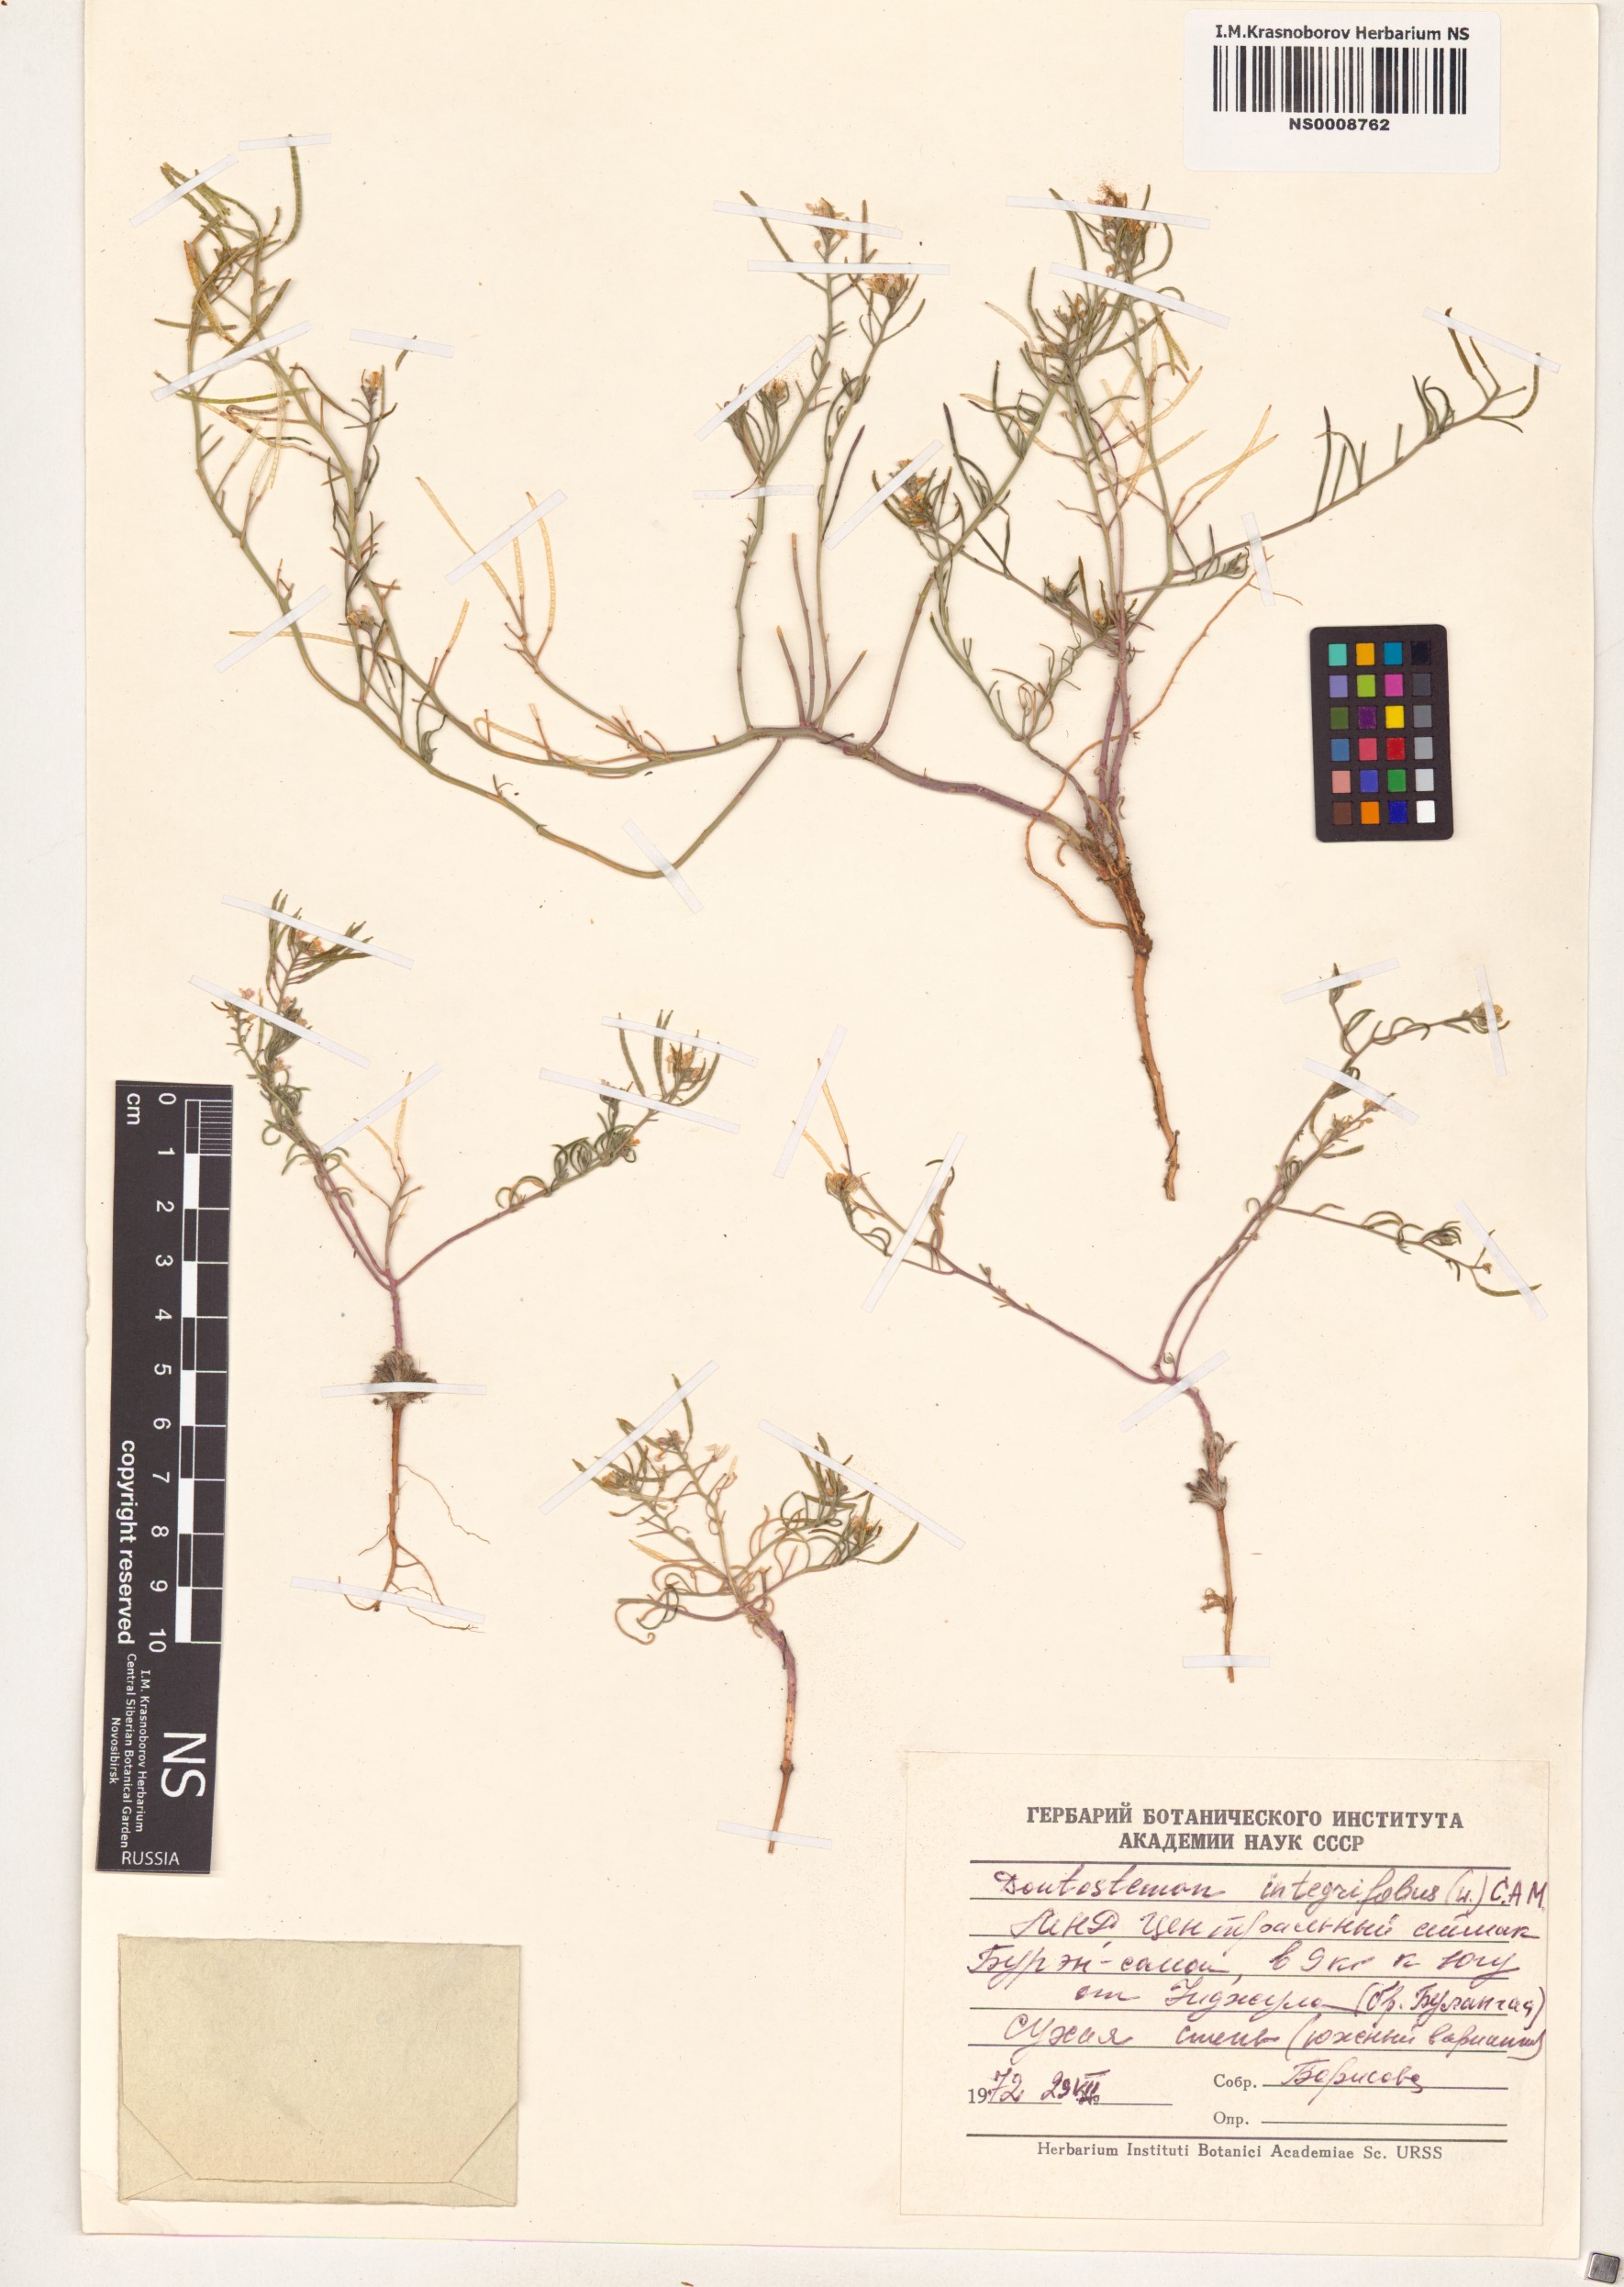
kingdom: Plantae
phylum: Tracheophyta
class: Magnoliopsida
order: Brassicales
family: Brassicaceae
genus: Dontostemon
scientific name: Dontostemon integrifolius
